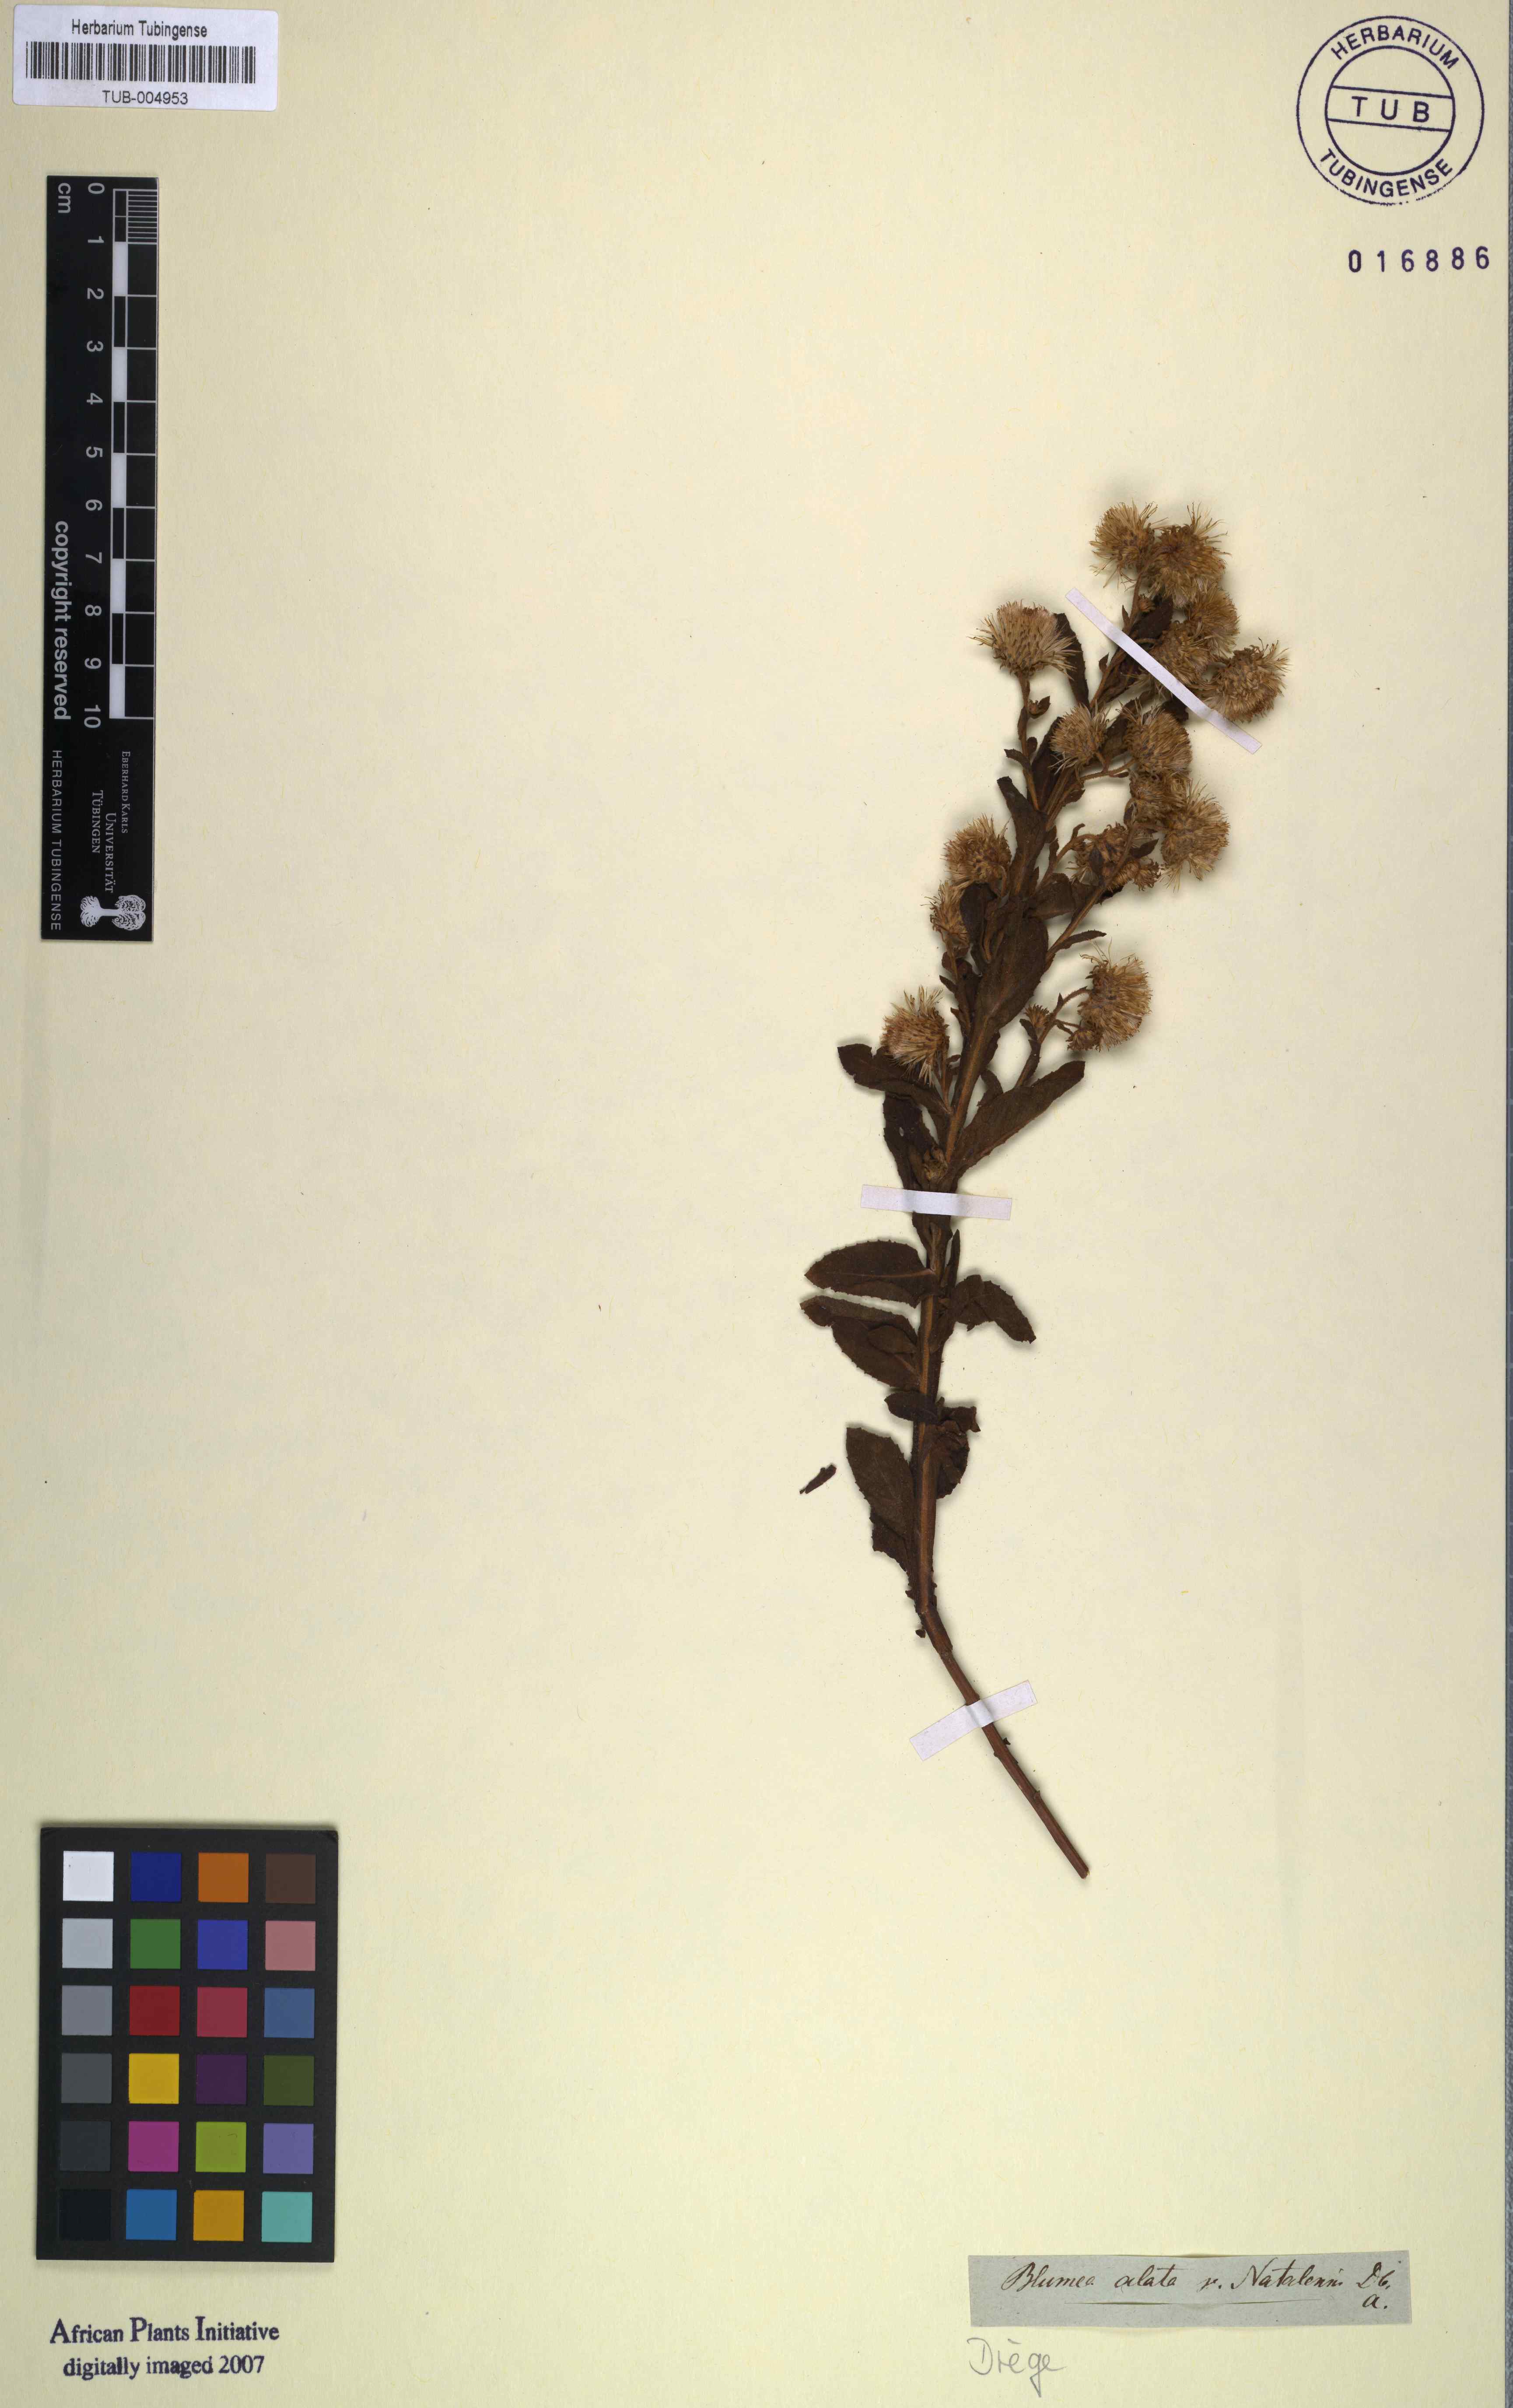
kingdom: Plantae
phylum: Tracheophyta
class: Magnoliopsida
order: Asterales
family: Asteraceae
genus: Laggera
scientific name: Laggera alata
